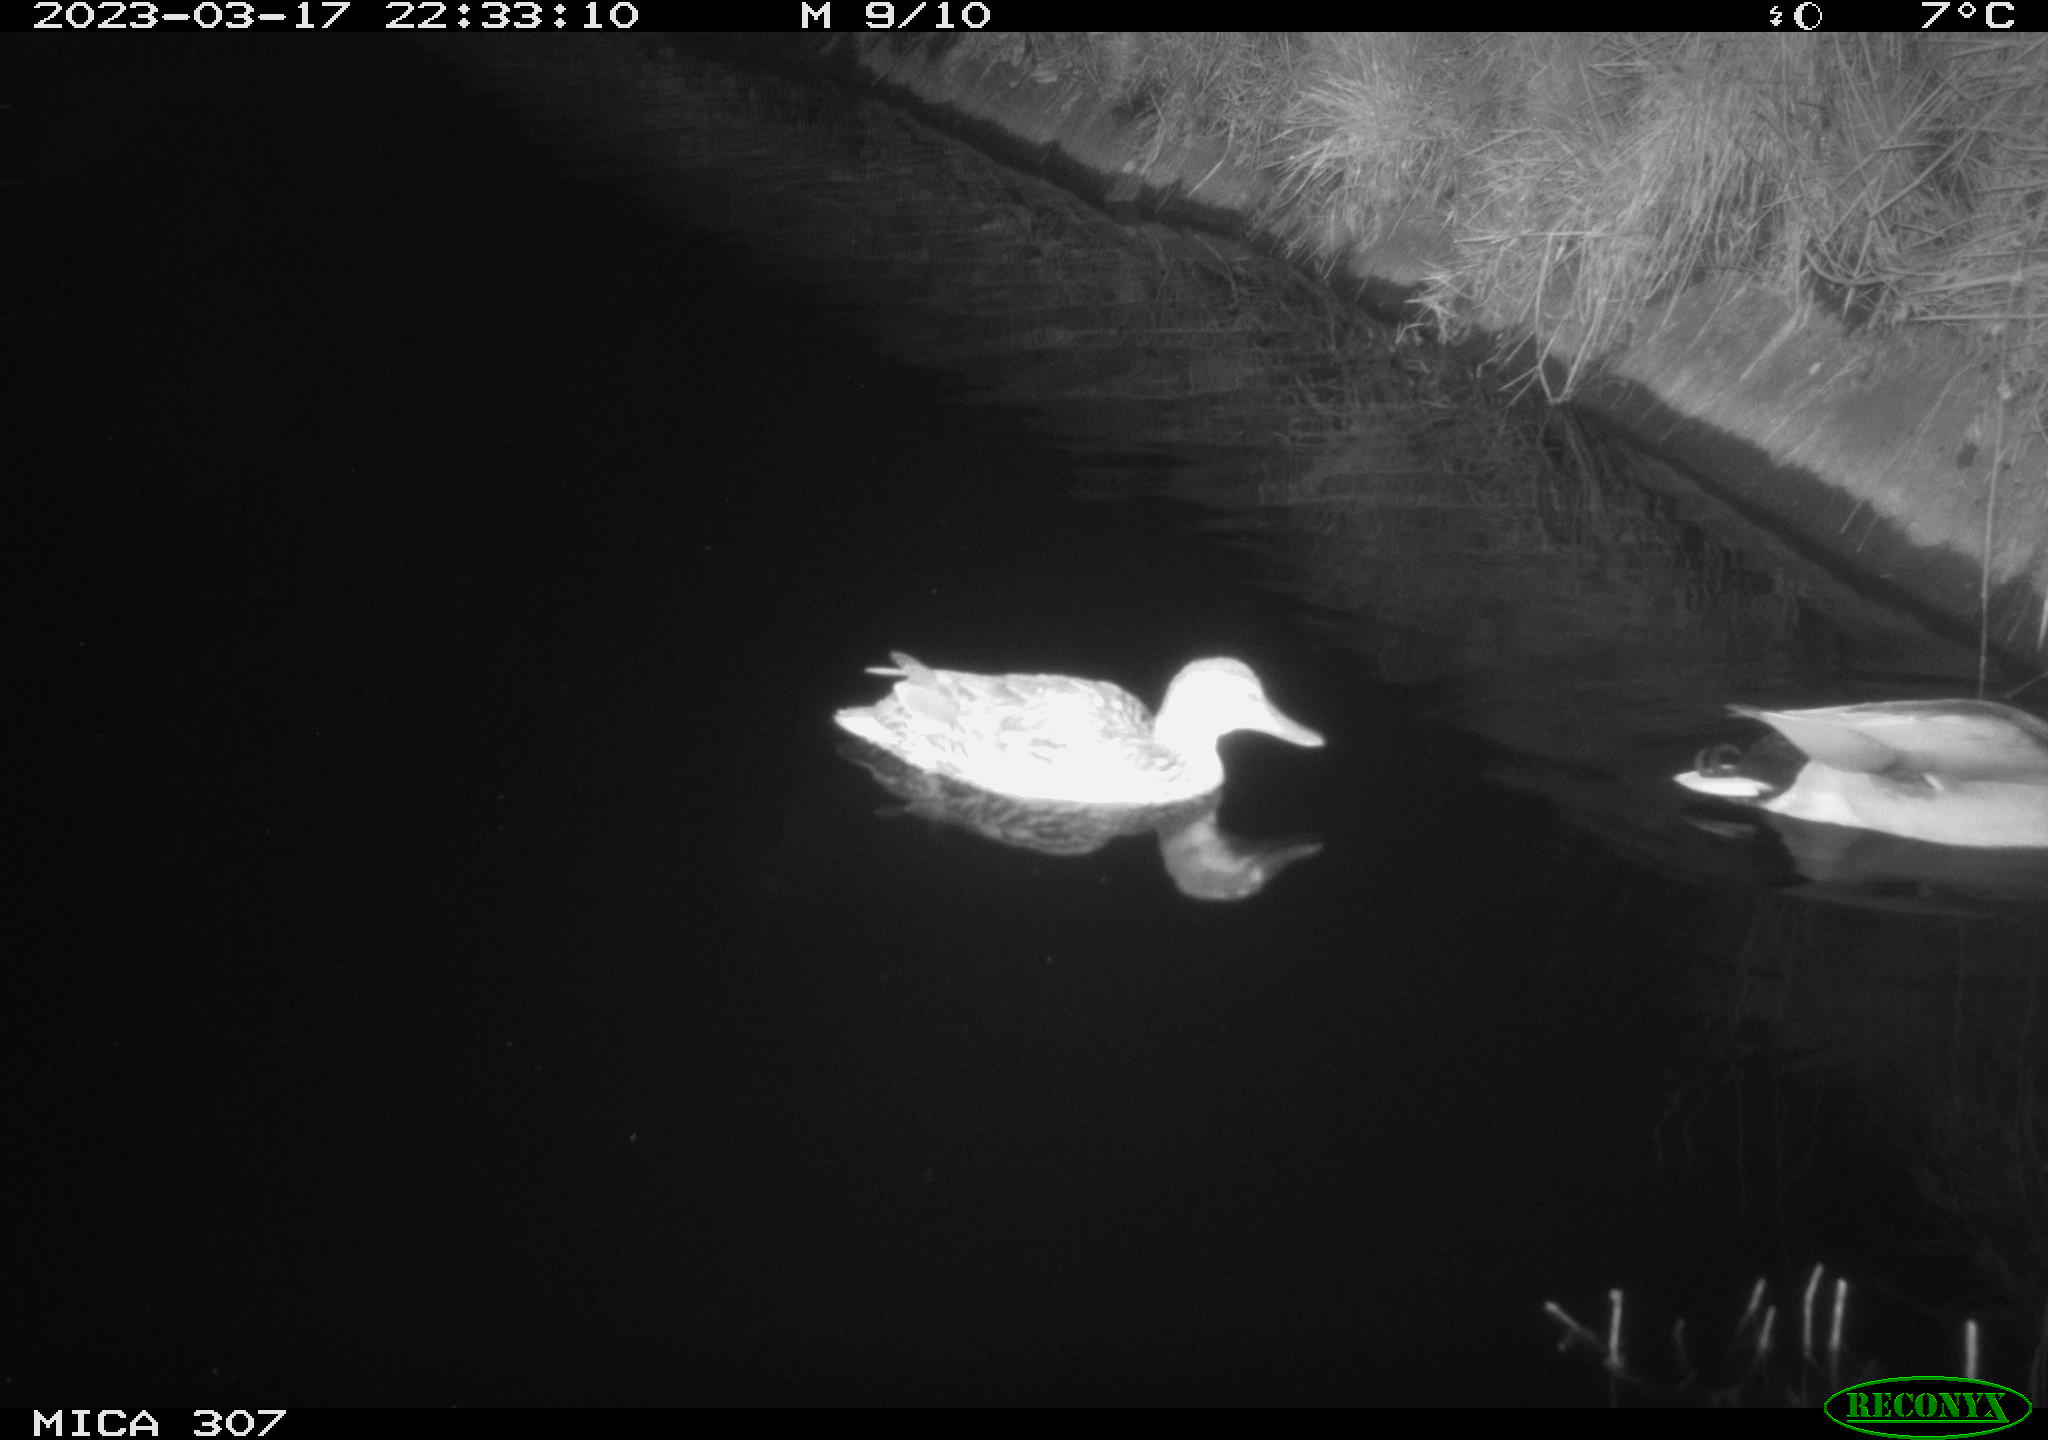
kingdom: Animalia
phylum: Chordata
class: Mammalia
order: Rodentia
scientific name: Rodentia
